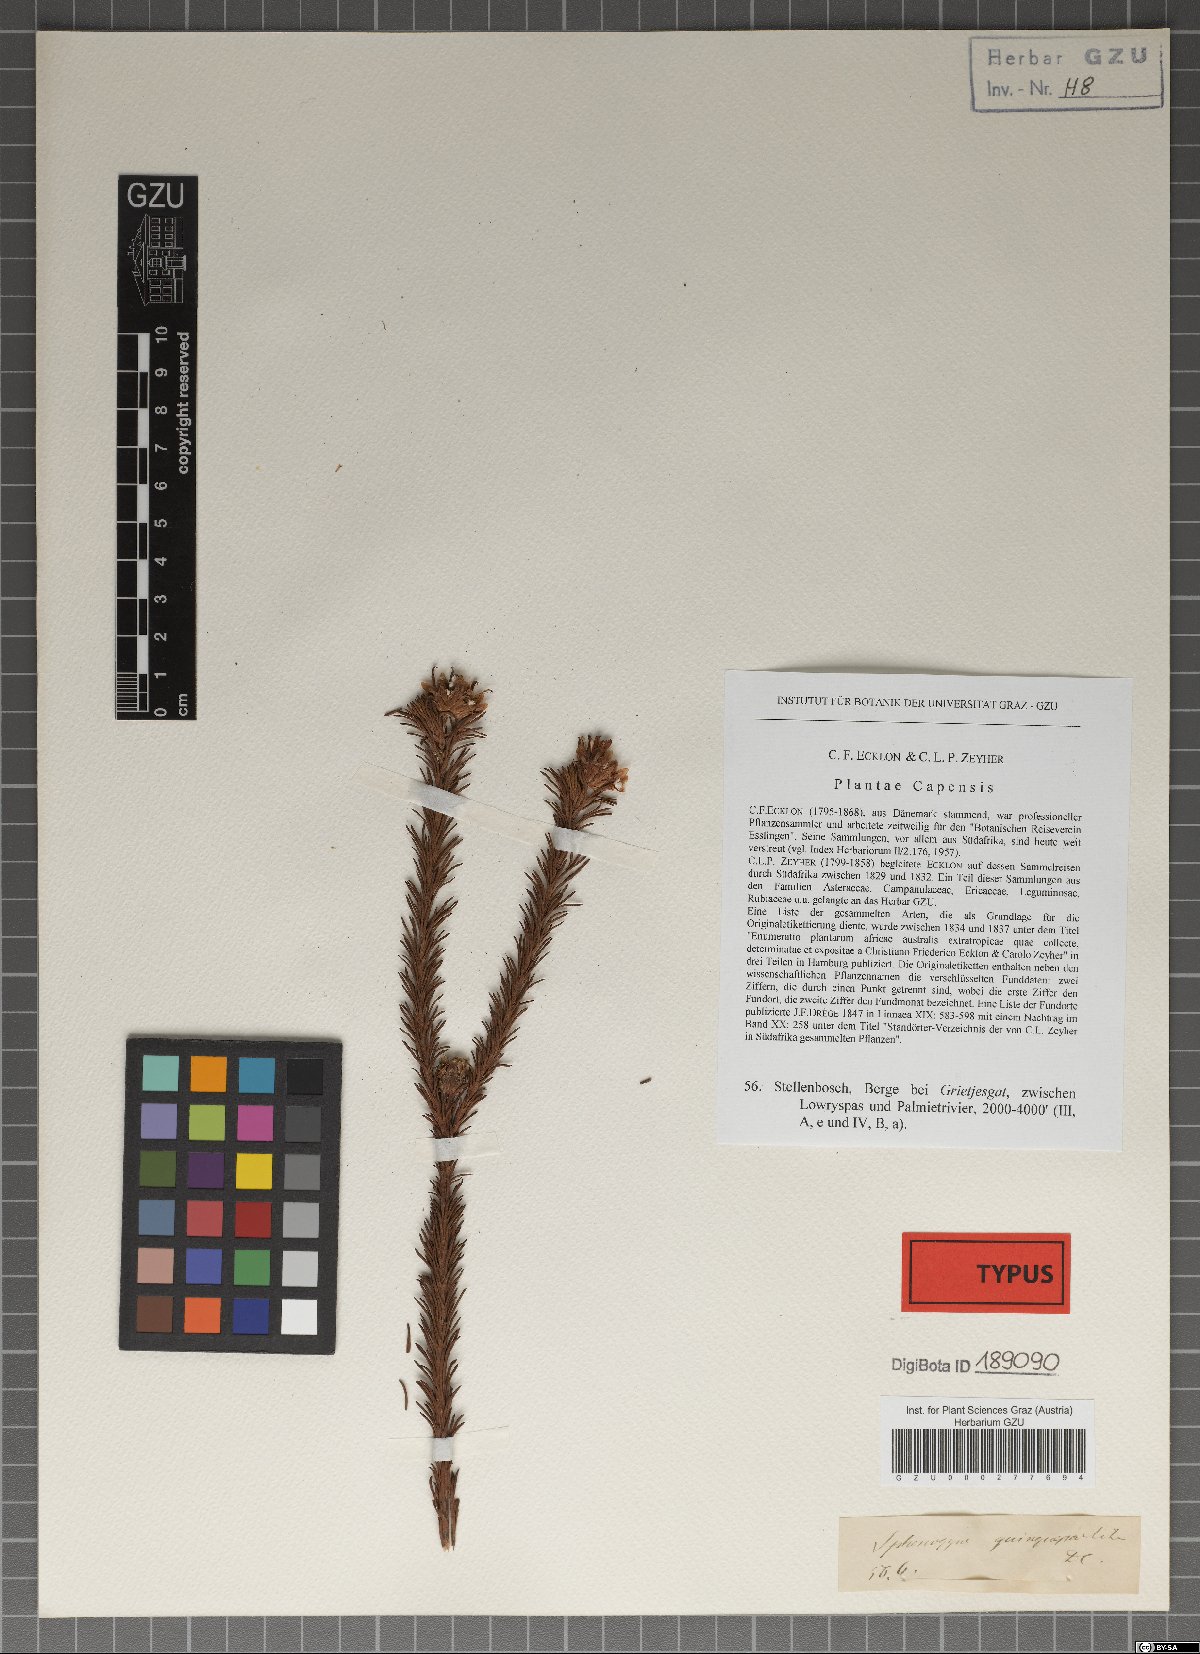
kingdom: Plantae
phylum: Tracheophyta
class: Magnoliopsida
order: Asterales
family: Asteraceae
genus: Ursinia
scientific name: Ursinia quinquepartita
